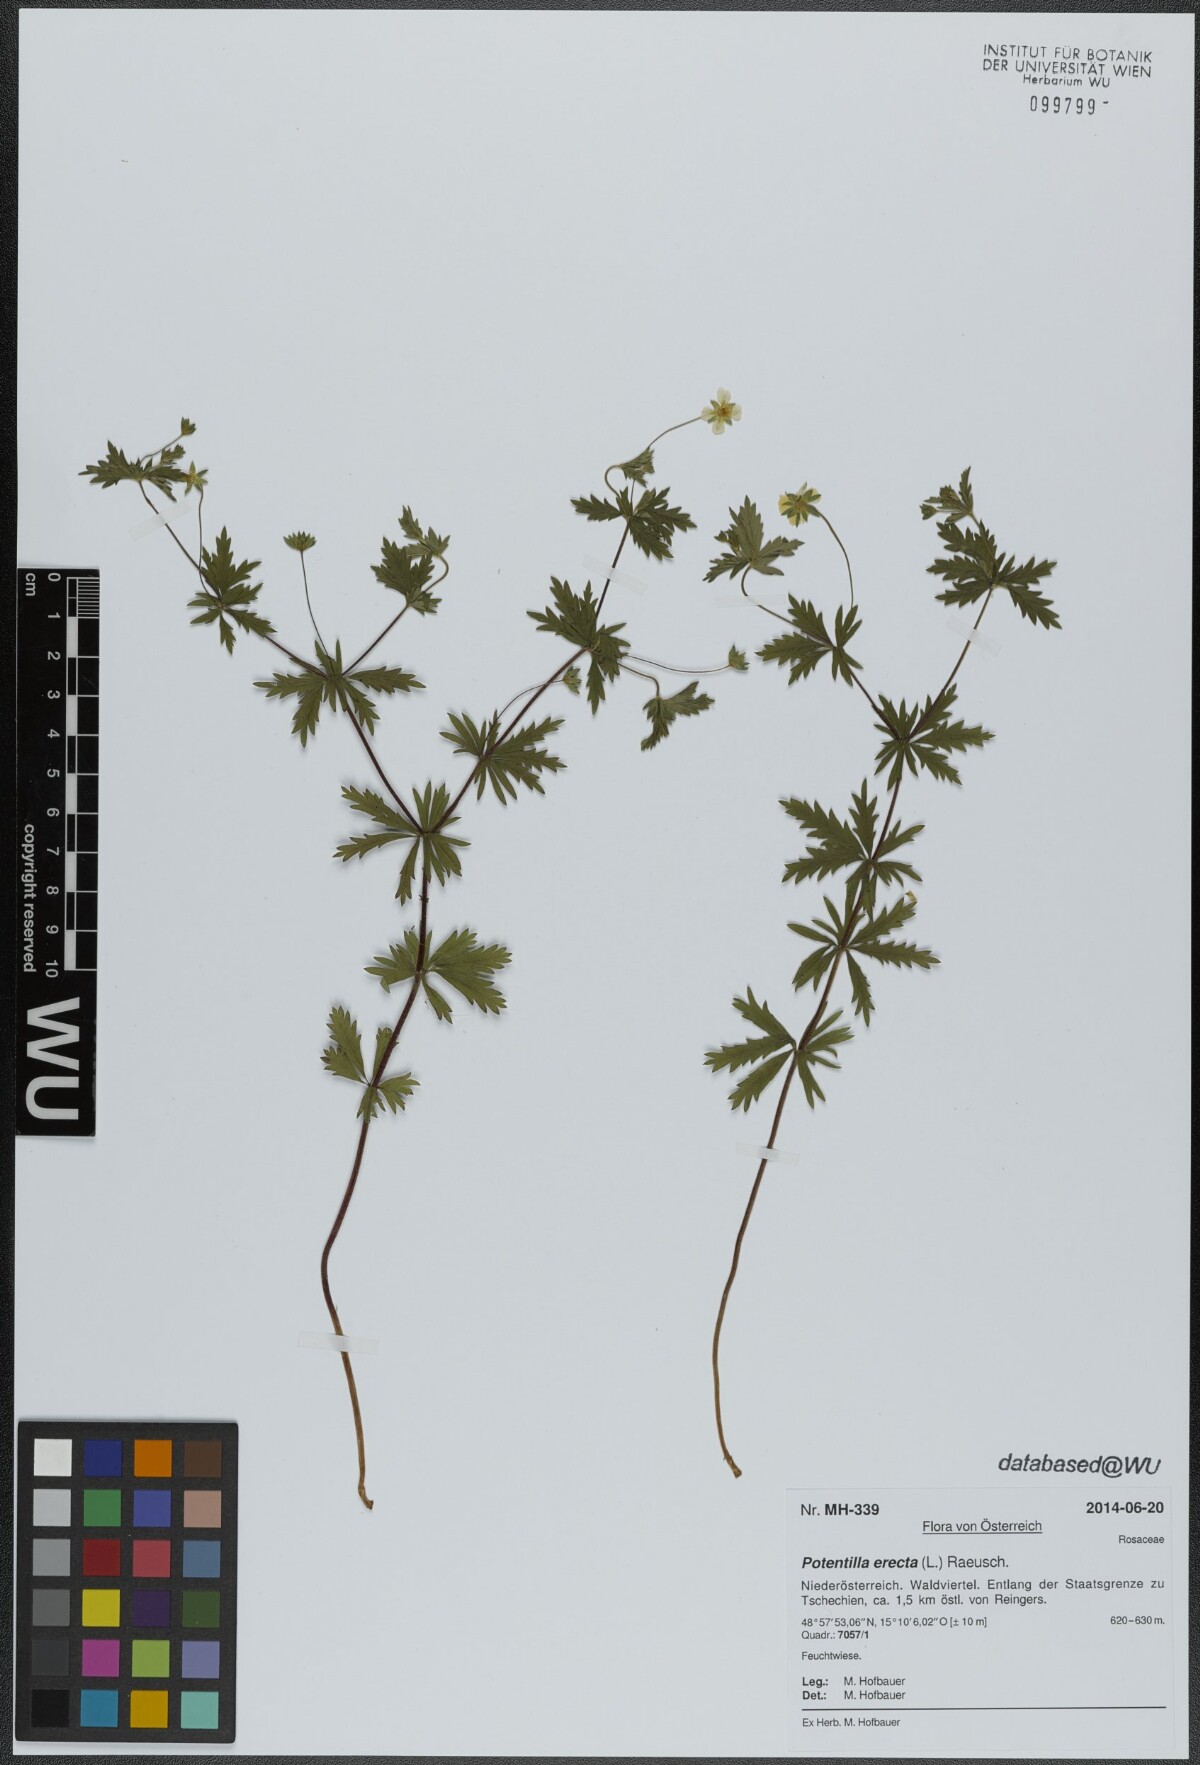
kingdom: Plantae
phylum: Tracheophyta
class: Magnoliopsida
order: Rosales
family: Rosaceae
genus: Potentilla
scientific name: Potentilla erecta
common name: Tormentil
